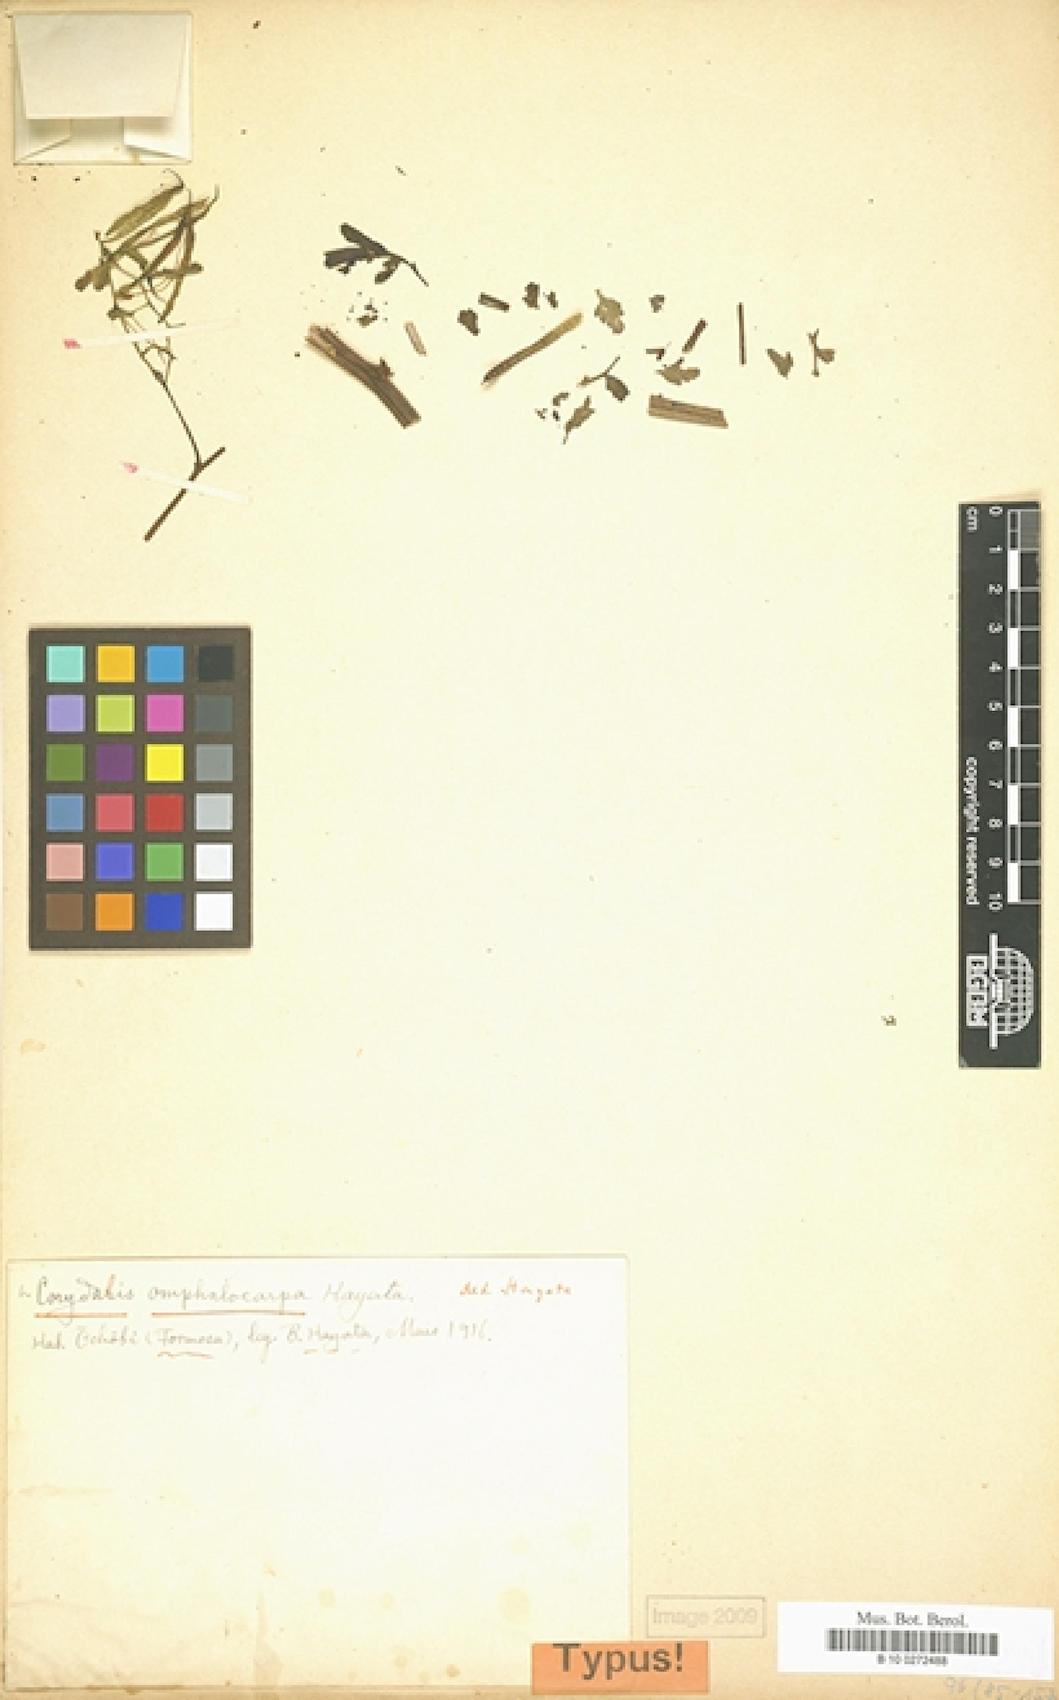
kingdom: Plantae
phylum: Tracheophyta
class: Magnoliopsida
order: Ranunculales
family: Papaveraceae
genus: Corydalis
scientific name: Corydalis balansae
